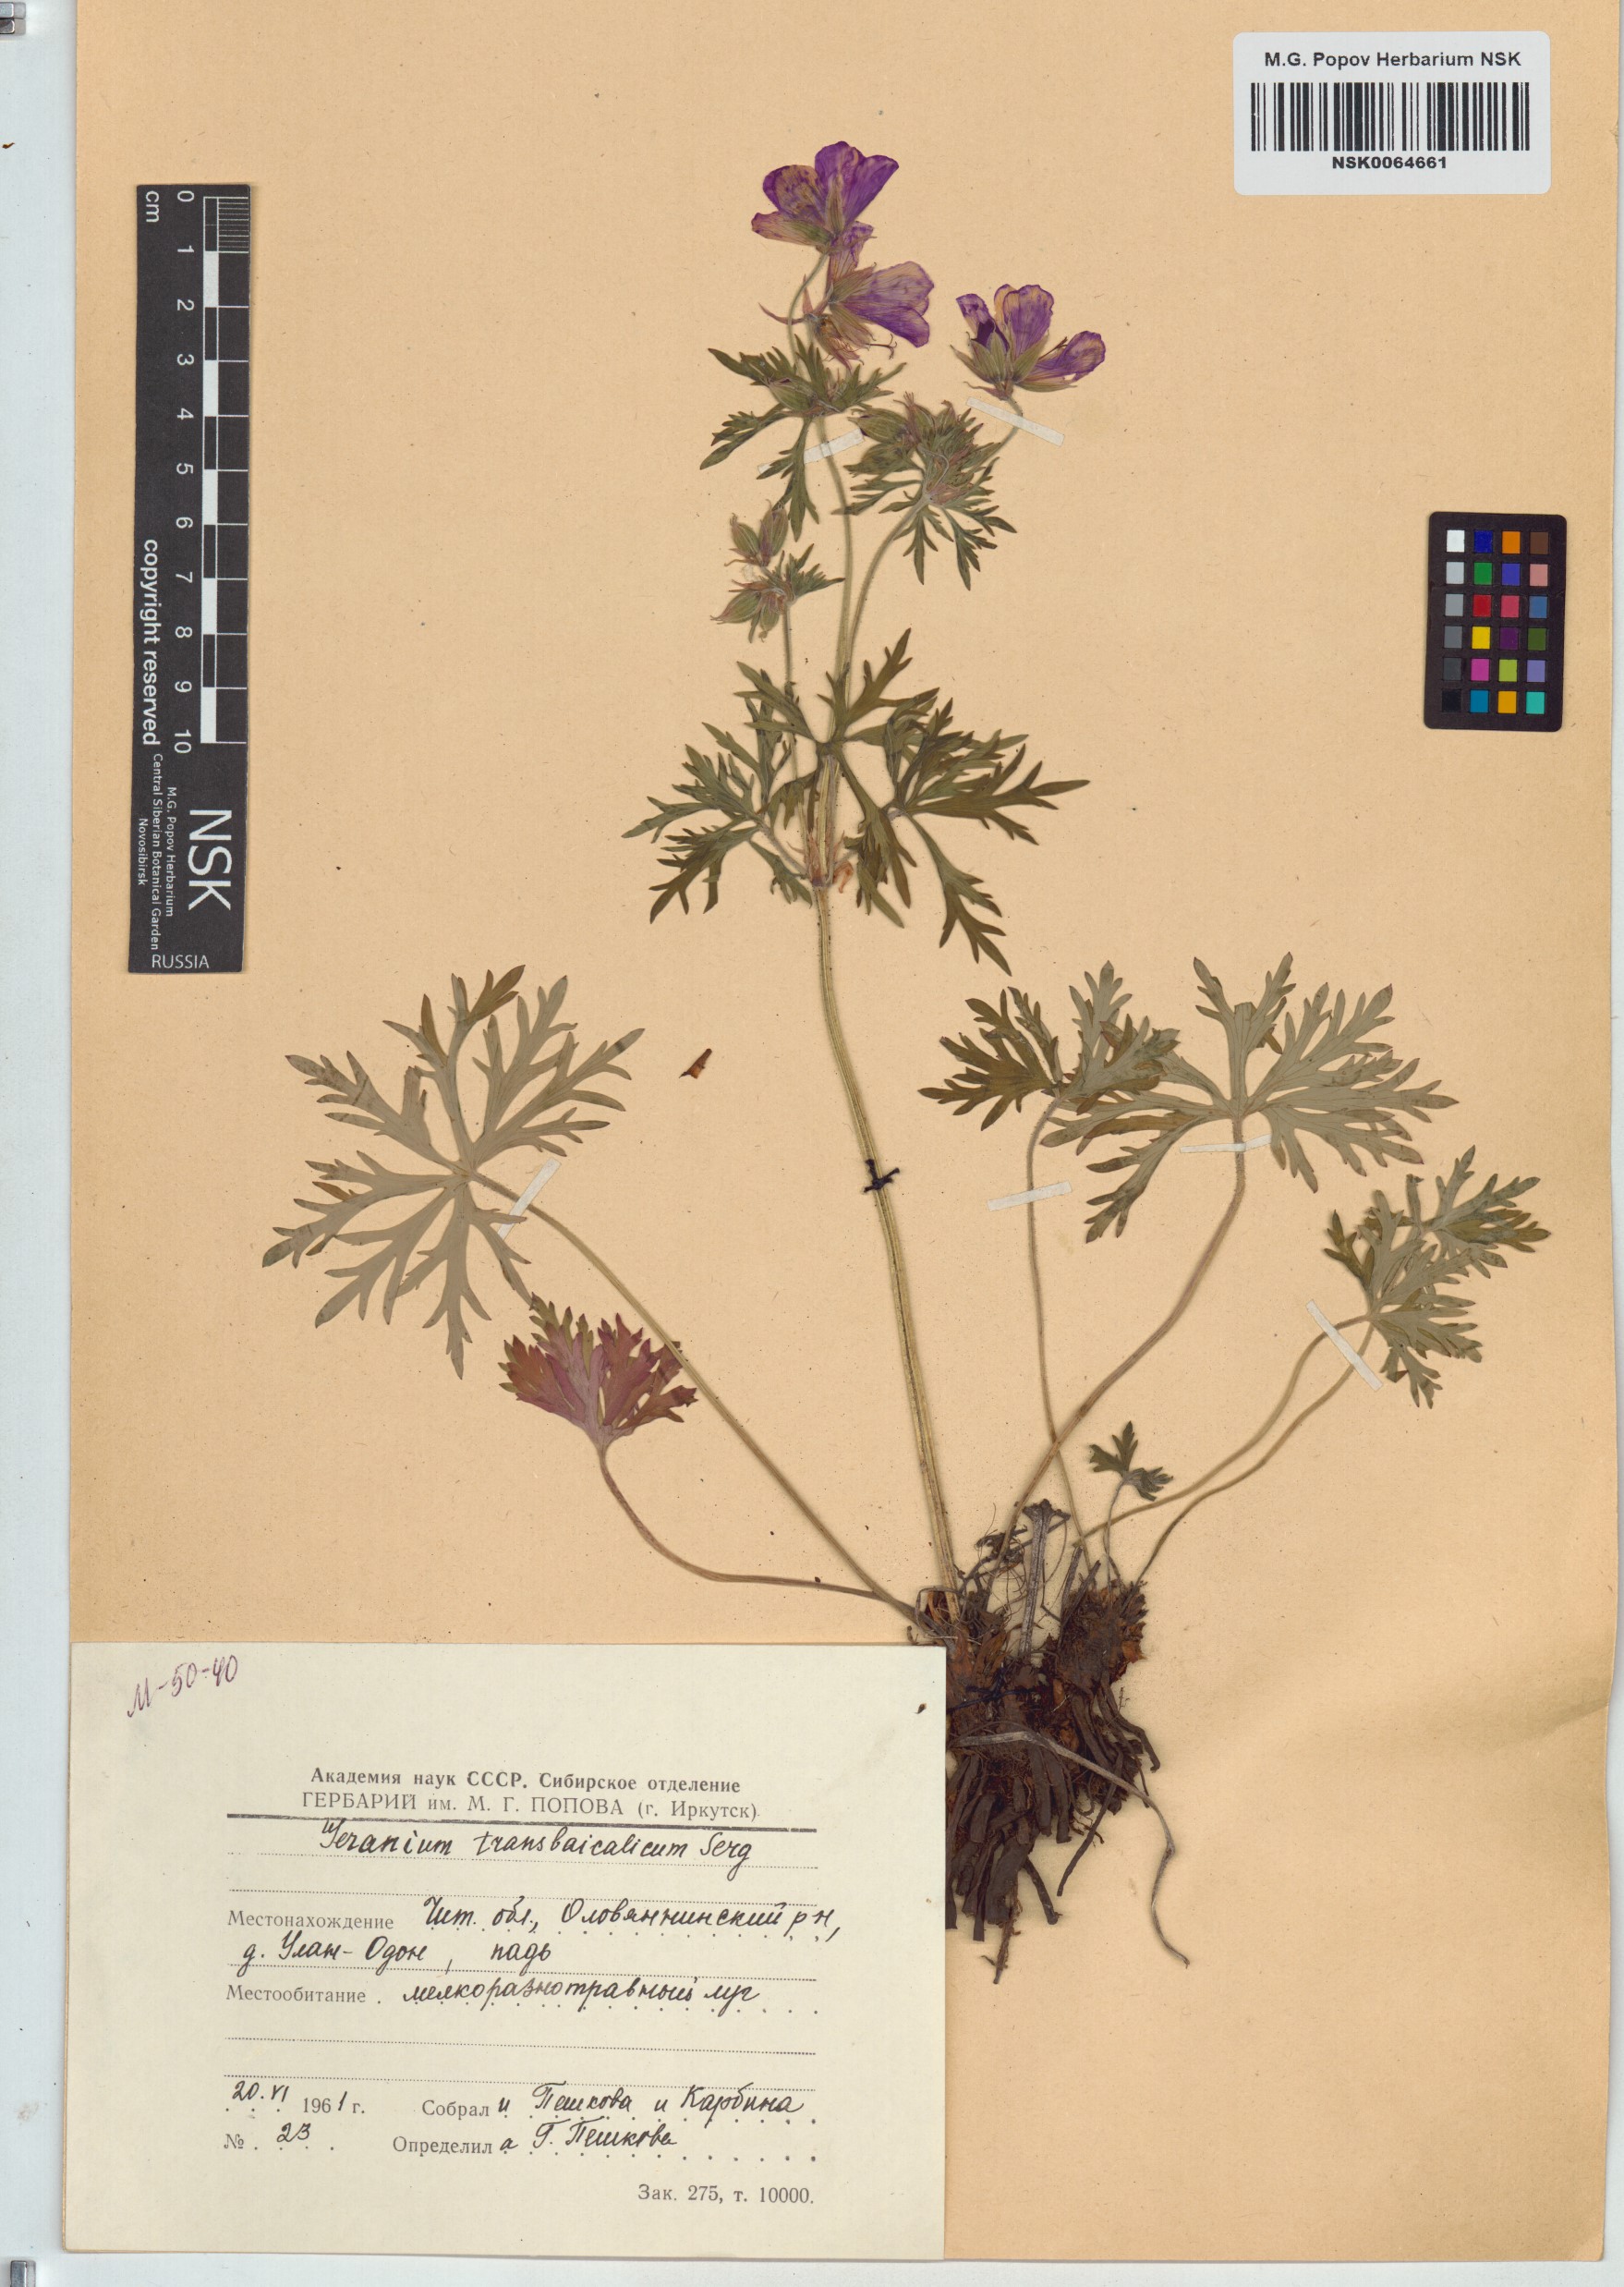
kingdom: Plantae
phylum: Tracheophyta
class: Magnoliopsida
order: Geraniales
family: Geraniaceae
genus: Geranium
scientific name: Geranium pratense
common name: Meadow crane's-bill
